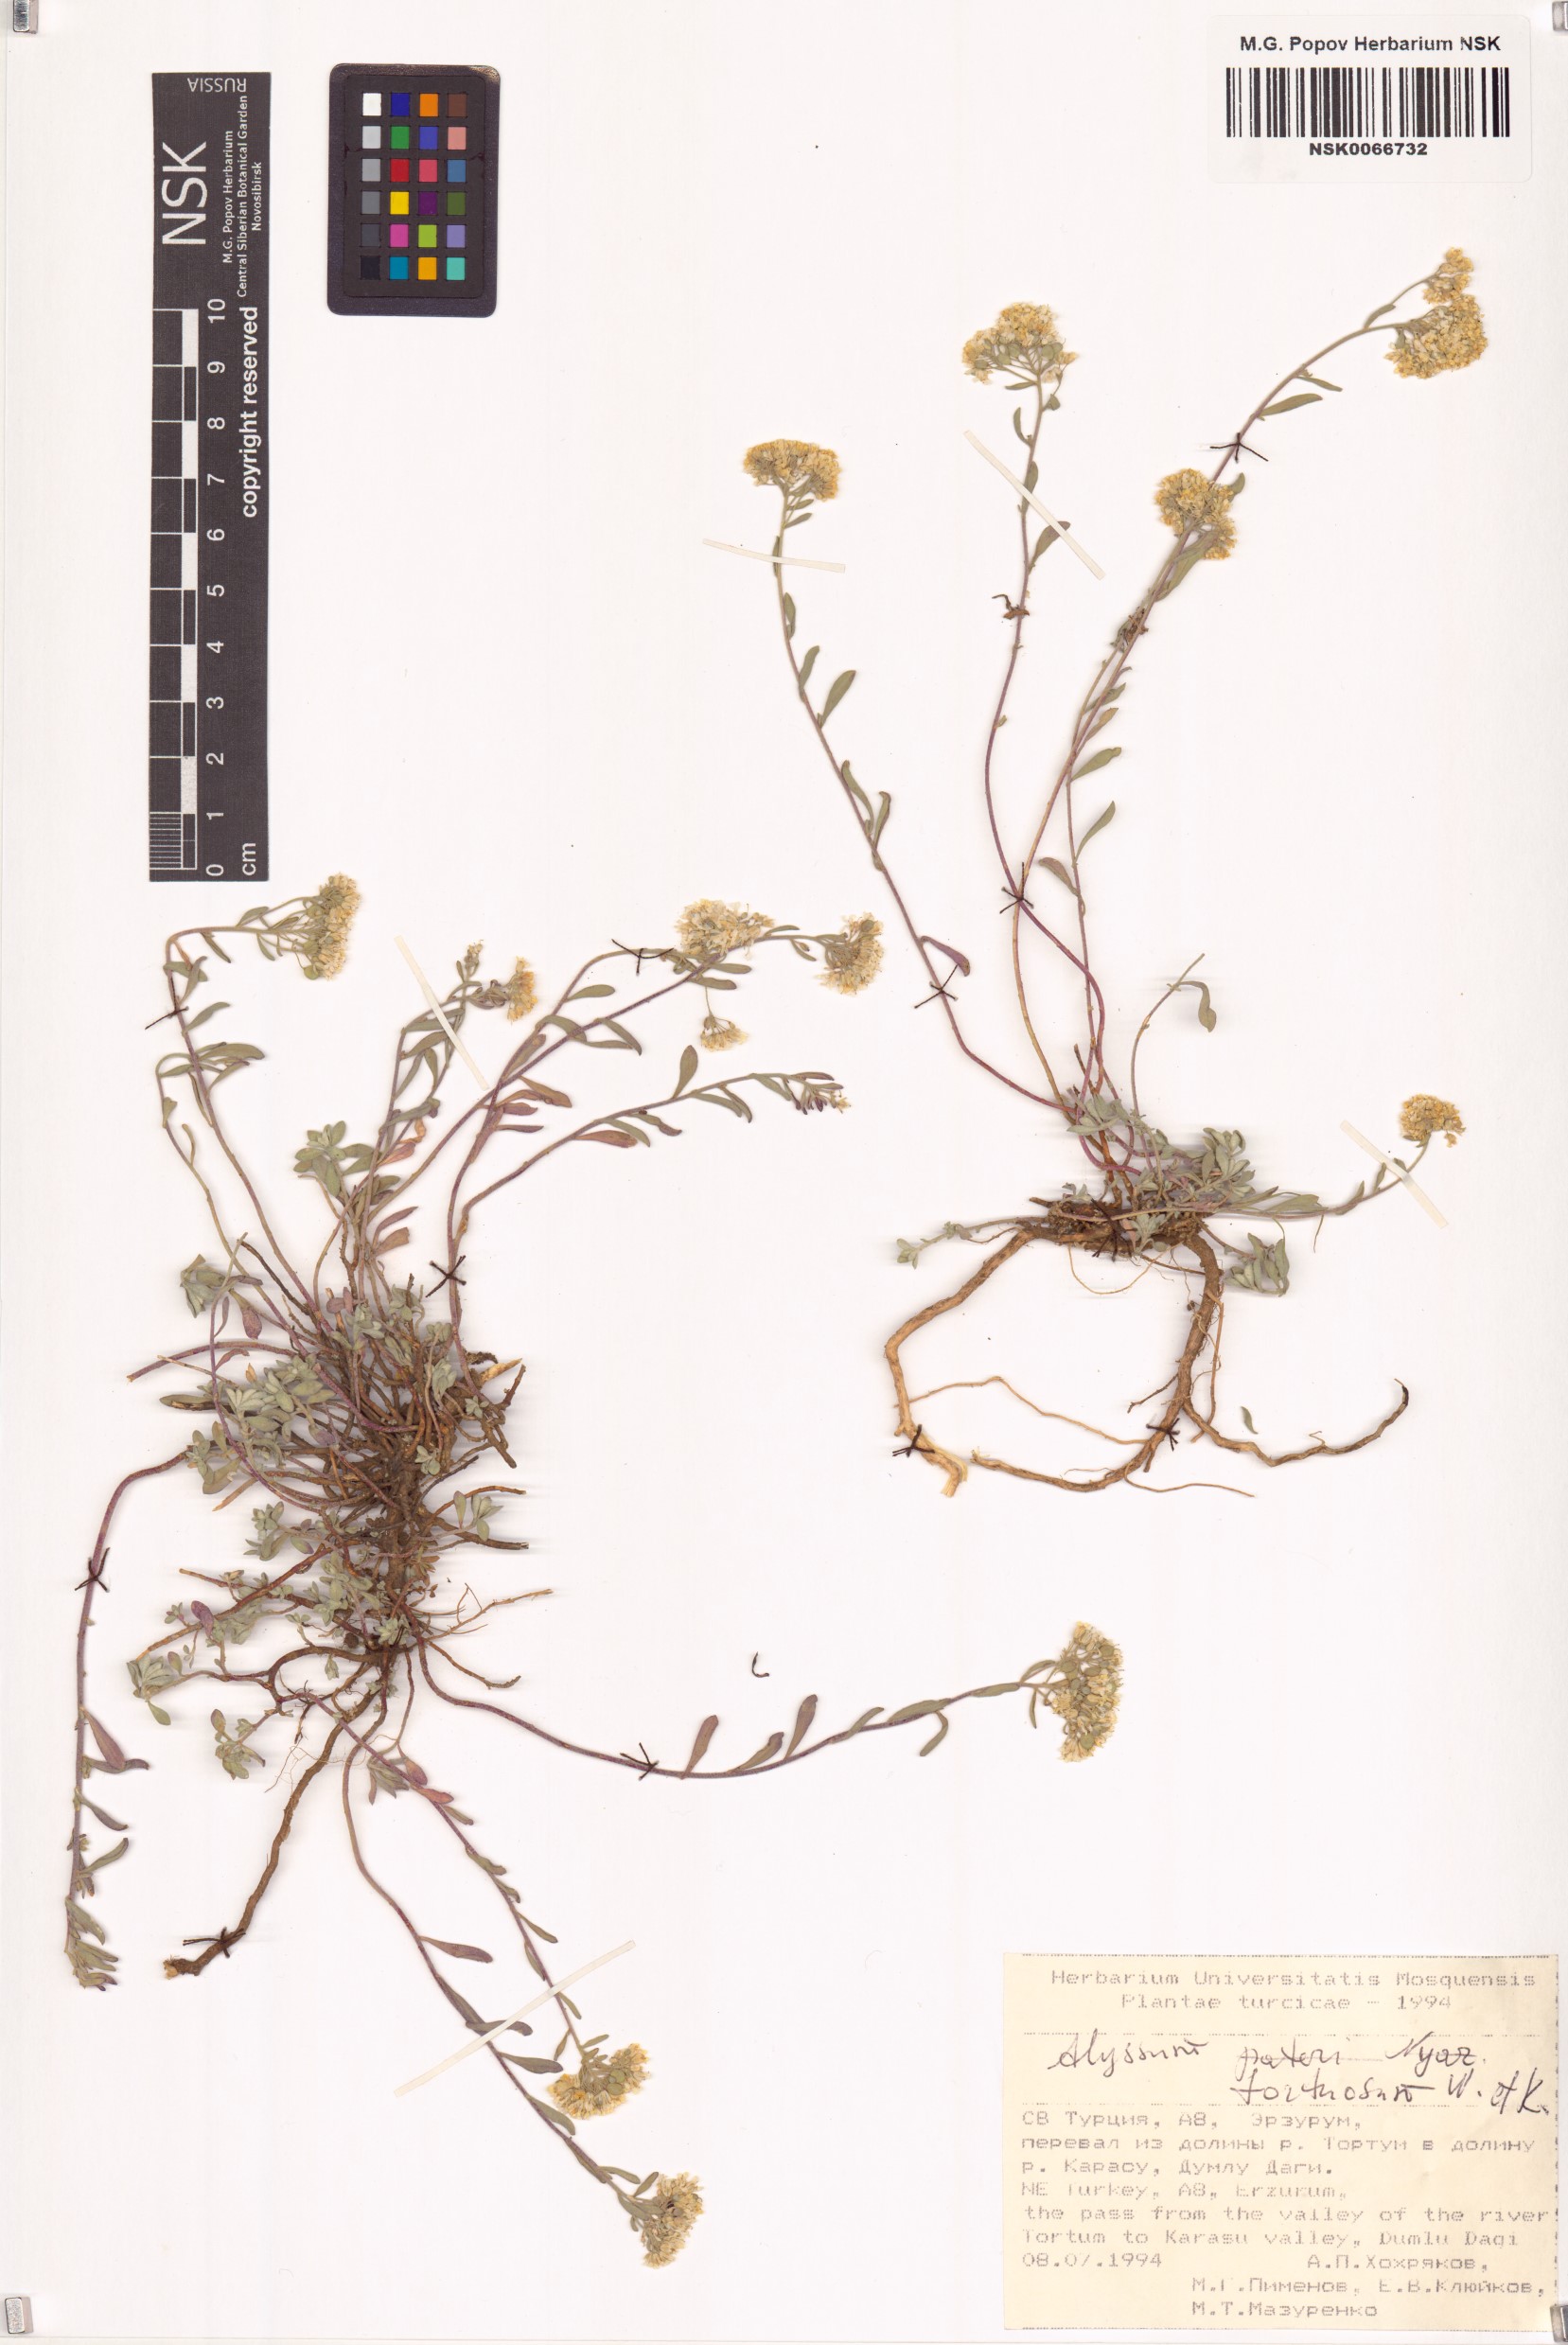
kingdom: Plantae
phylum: Tracheophyta
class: Magnoliopsida
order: Brassicales
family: Brassicaceae
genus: Odontarrhena
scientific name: Odontarrhena tortuosa
